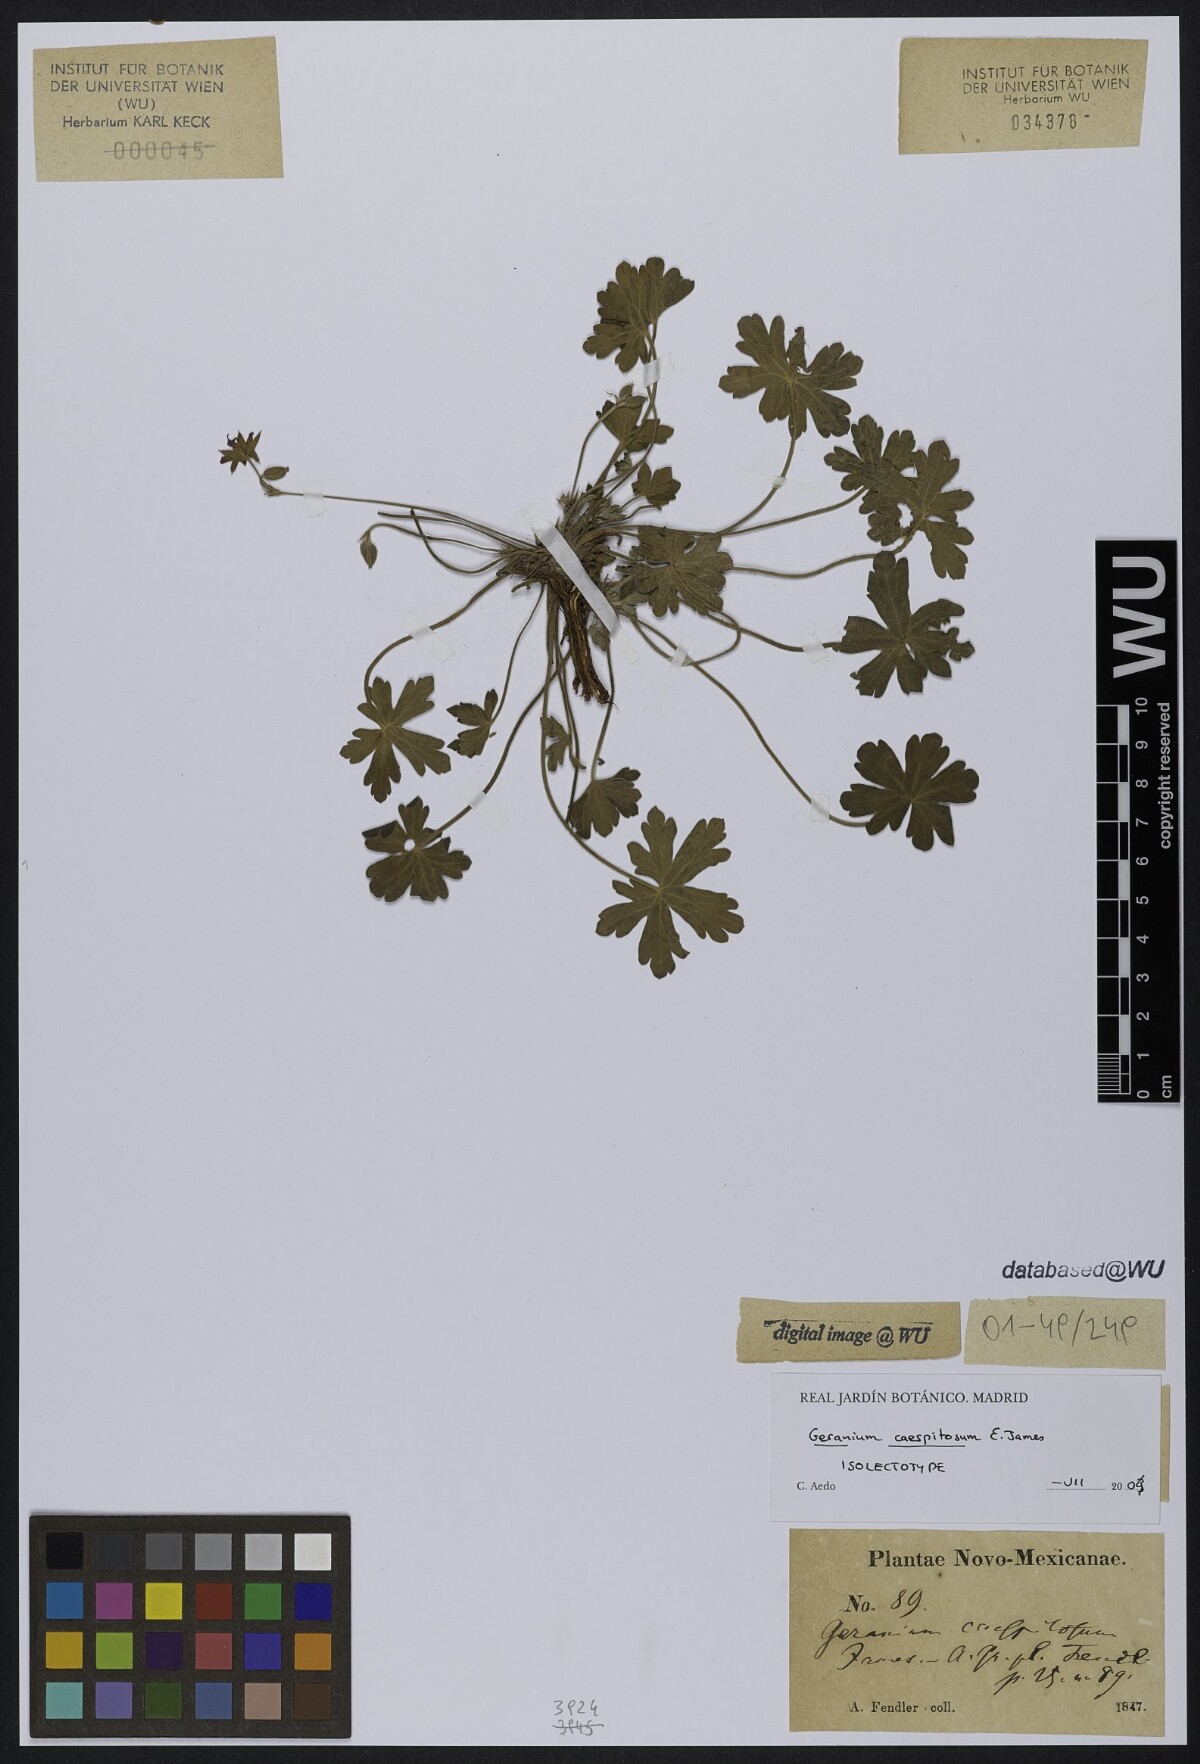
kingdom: Plantae
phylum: Tracheophyta
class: Magnoliopsida
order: Geraniales
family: Geraniaceae
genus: Geranium
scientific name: Geranium caespitosum
